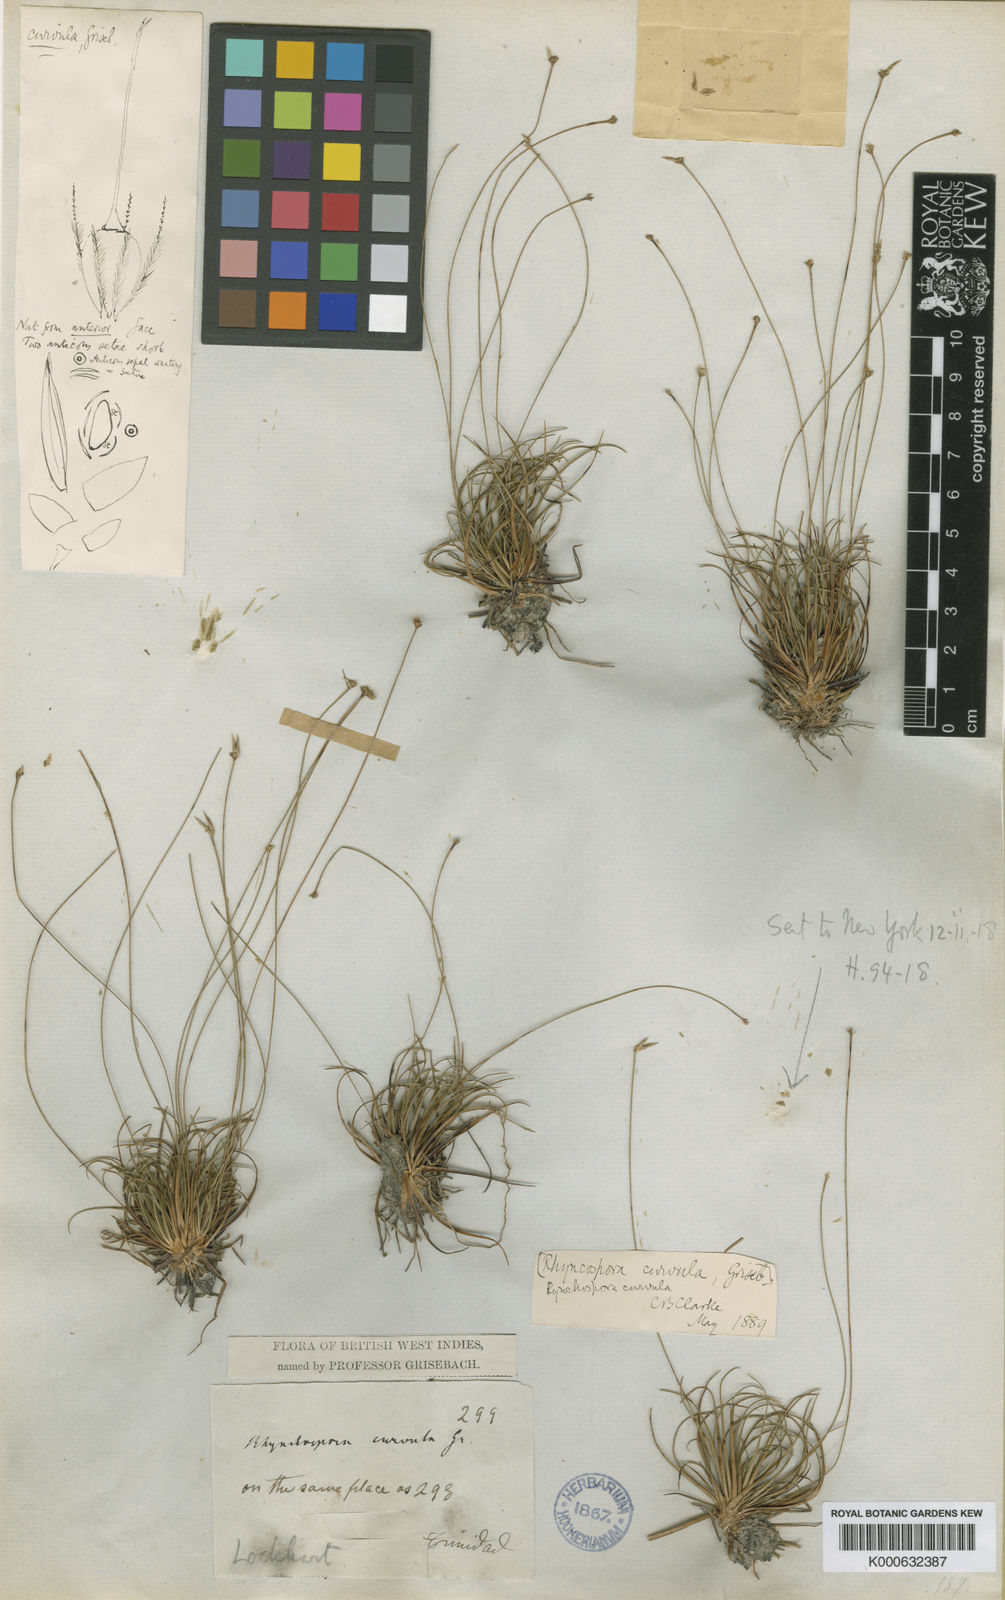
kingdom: Plantae
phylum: Tracheophyta
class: Liliopsida
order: Poales
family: Cyperaceae
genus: Rhynchospora
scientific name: Rhynchospora curvula
